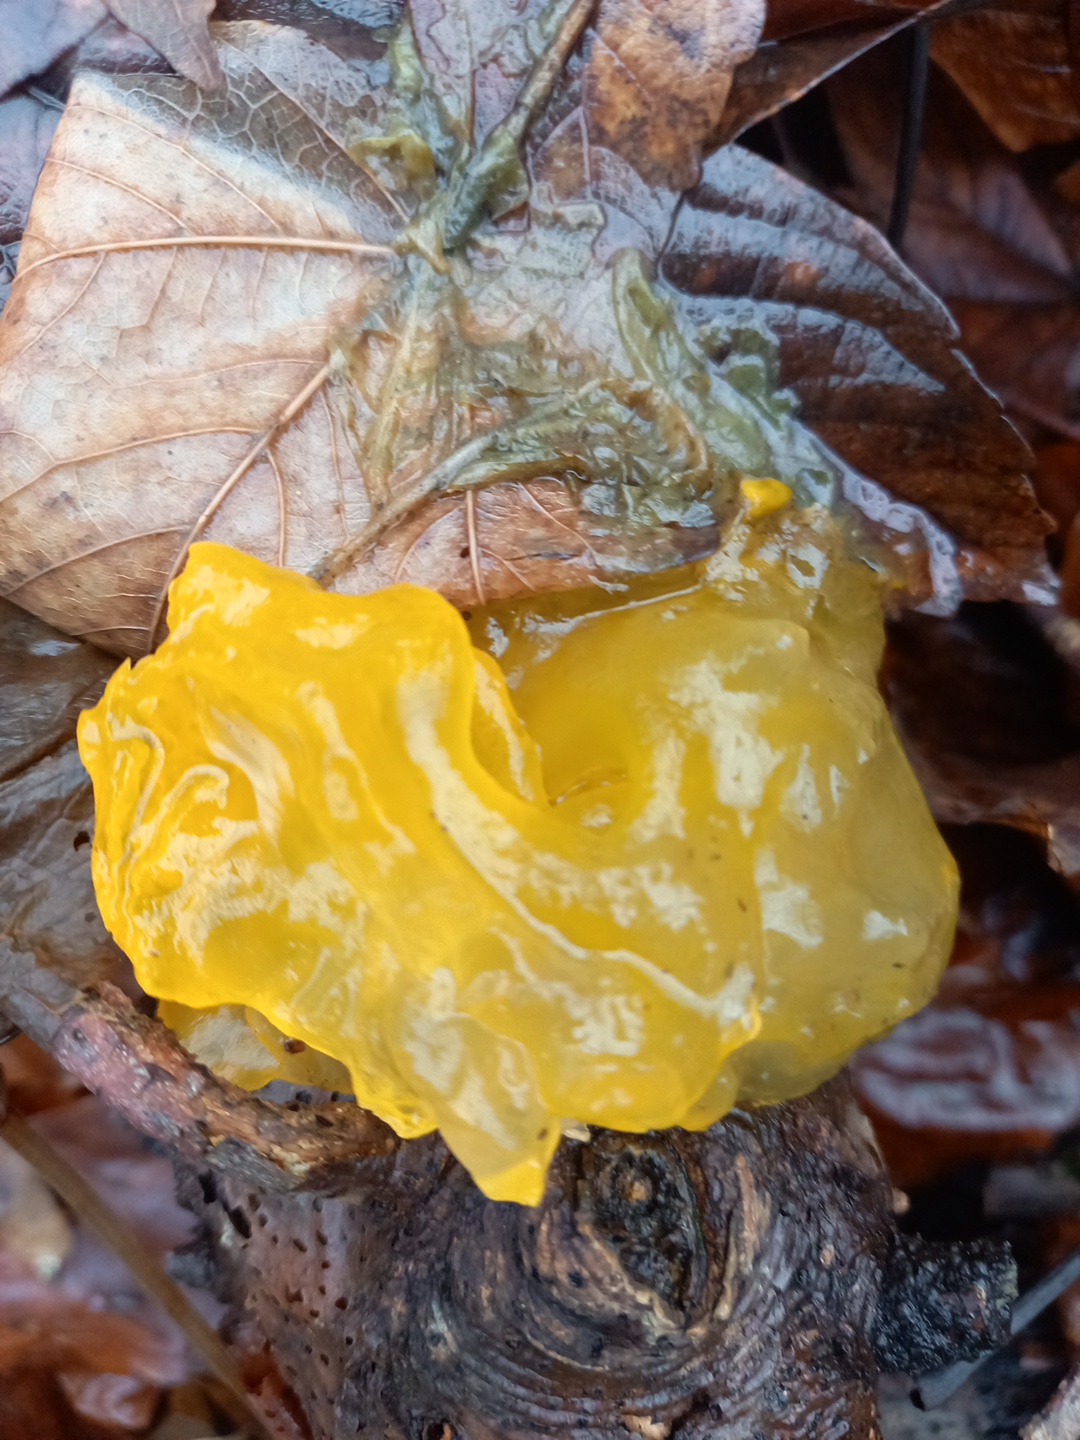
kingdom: Fungi
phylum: Basidiomycota
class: Tremellomycetes
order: Tremellales
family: Tremellaceae
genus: Tremella
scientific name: Tremella mesenterica
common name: gul bævresvamp
